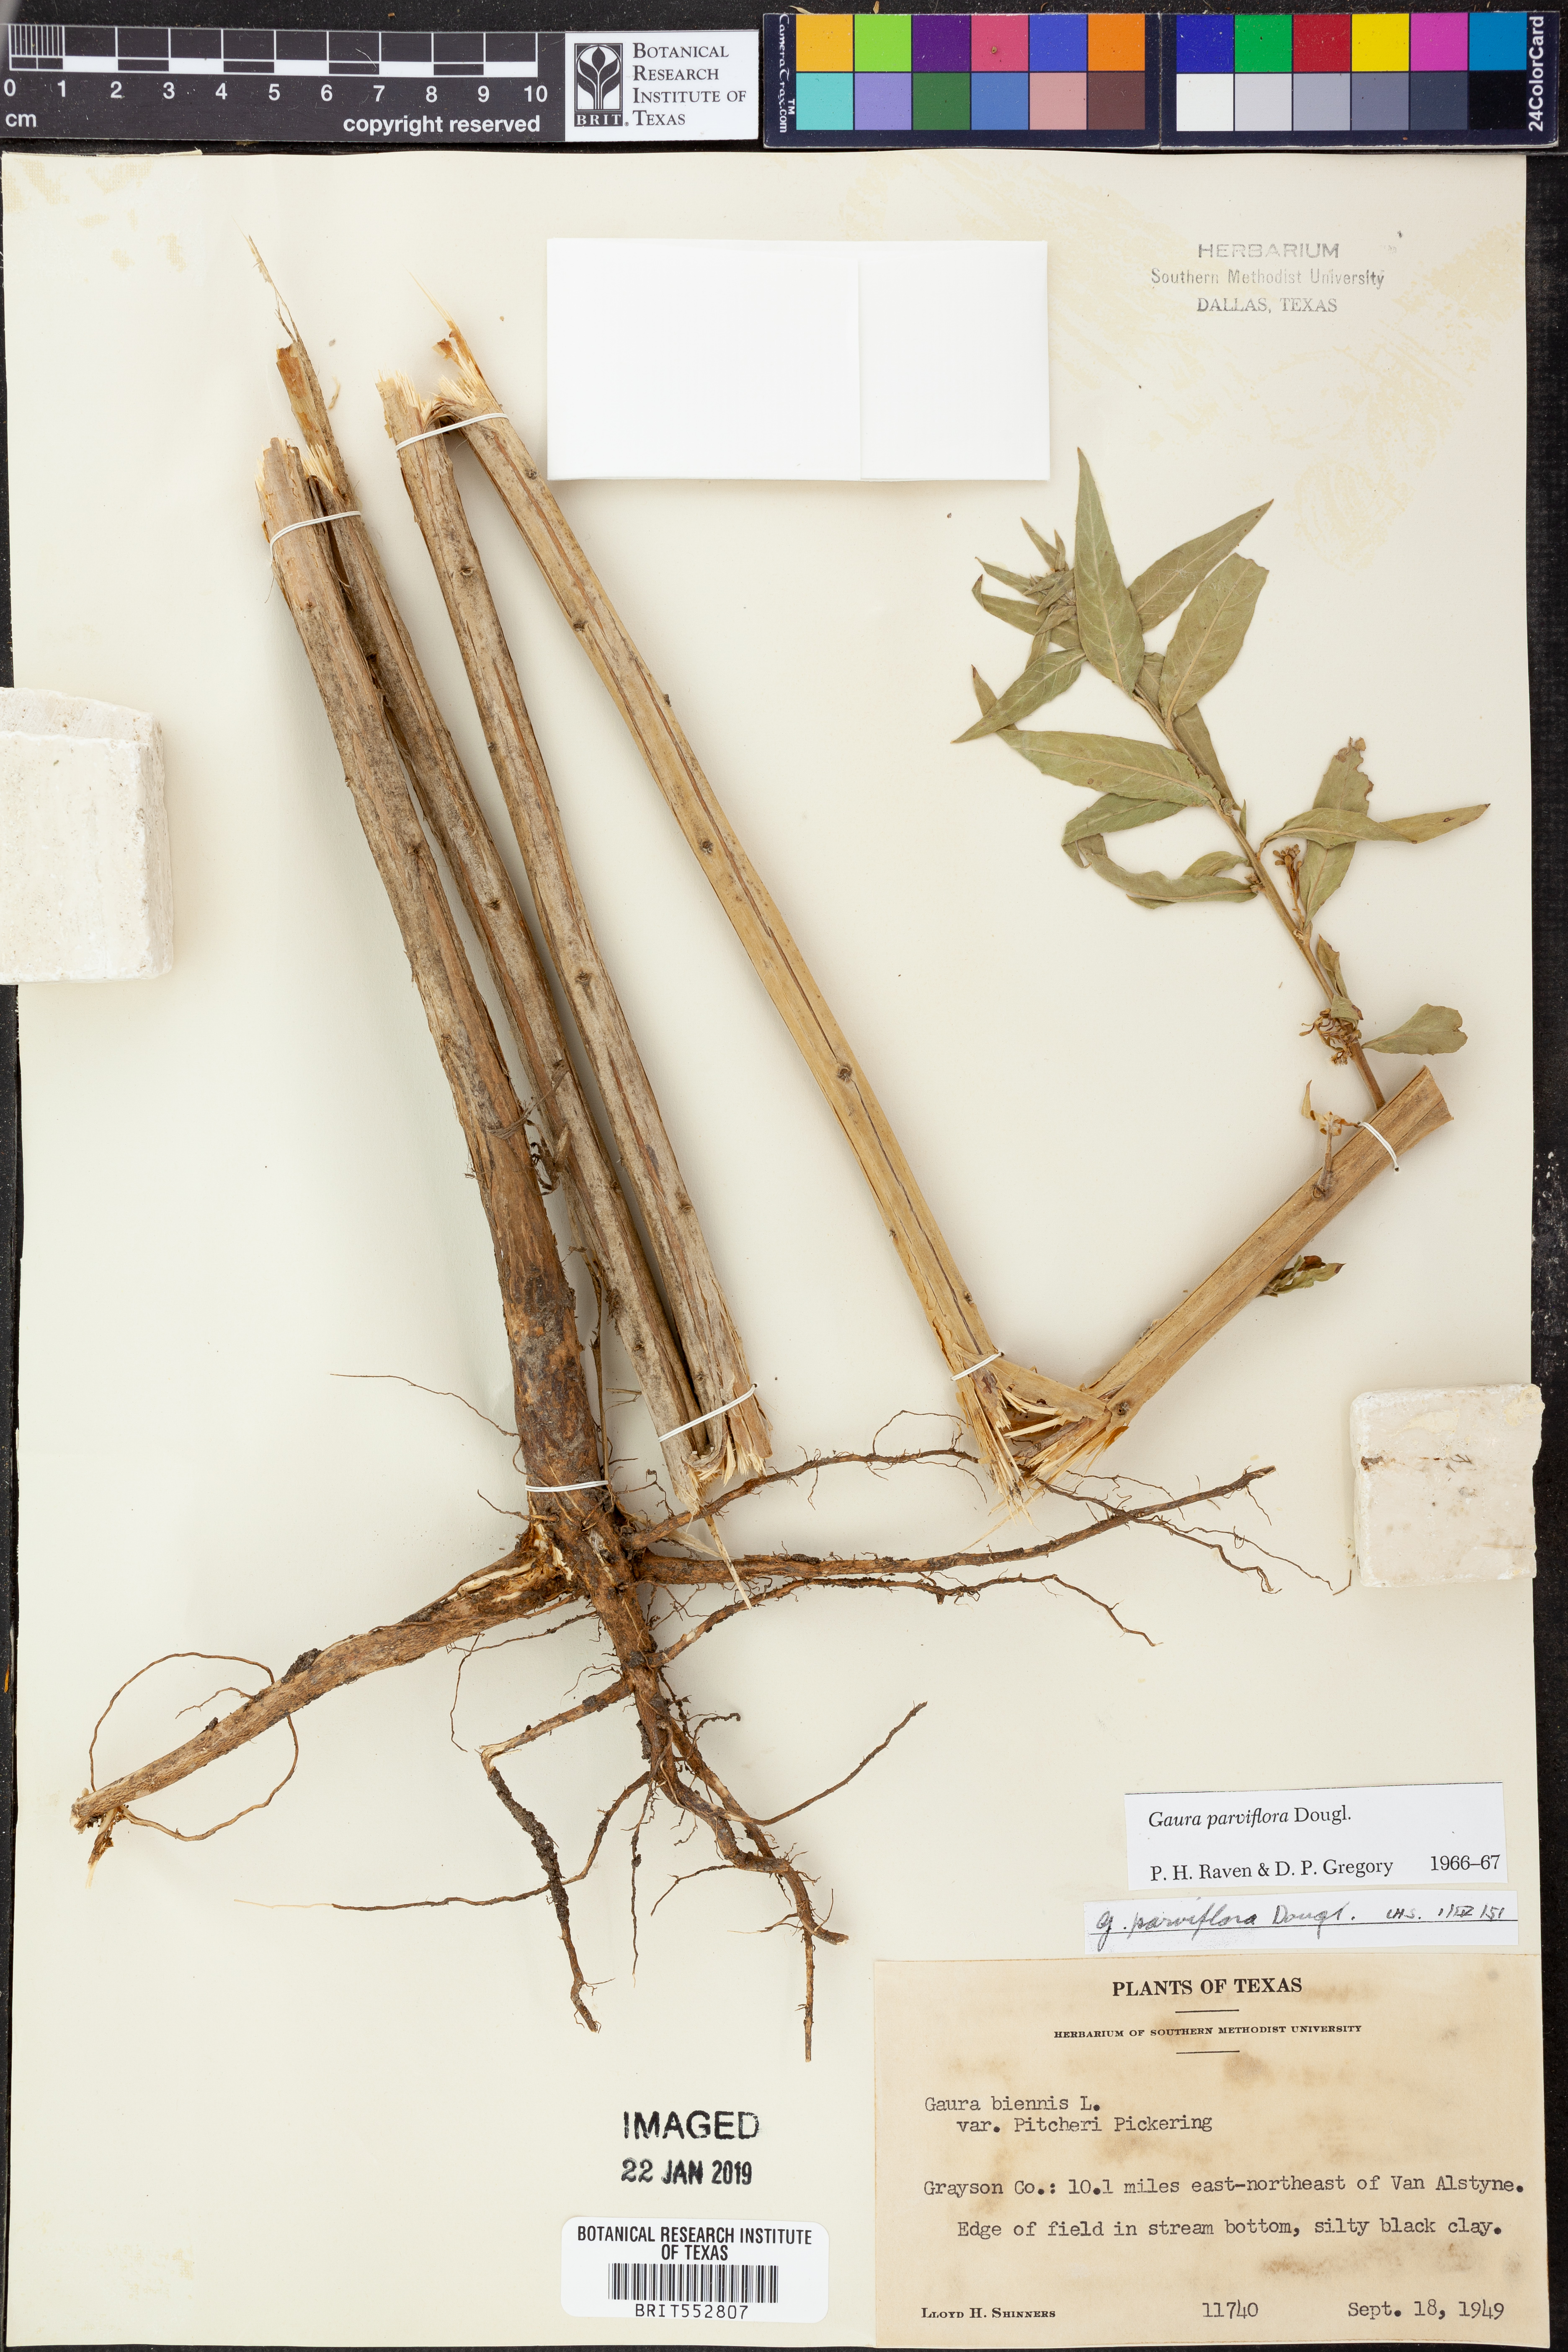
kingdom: Plantae
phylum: Tracheophyta
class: Magnoliopsida
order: Myrtales
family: Onagraceae
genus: Oenothera
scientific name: Oenothera curtiflora
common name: Velvetweed
